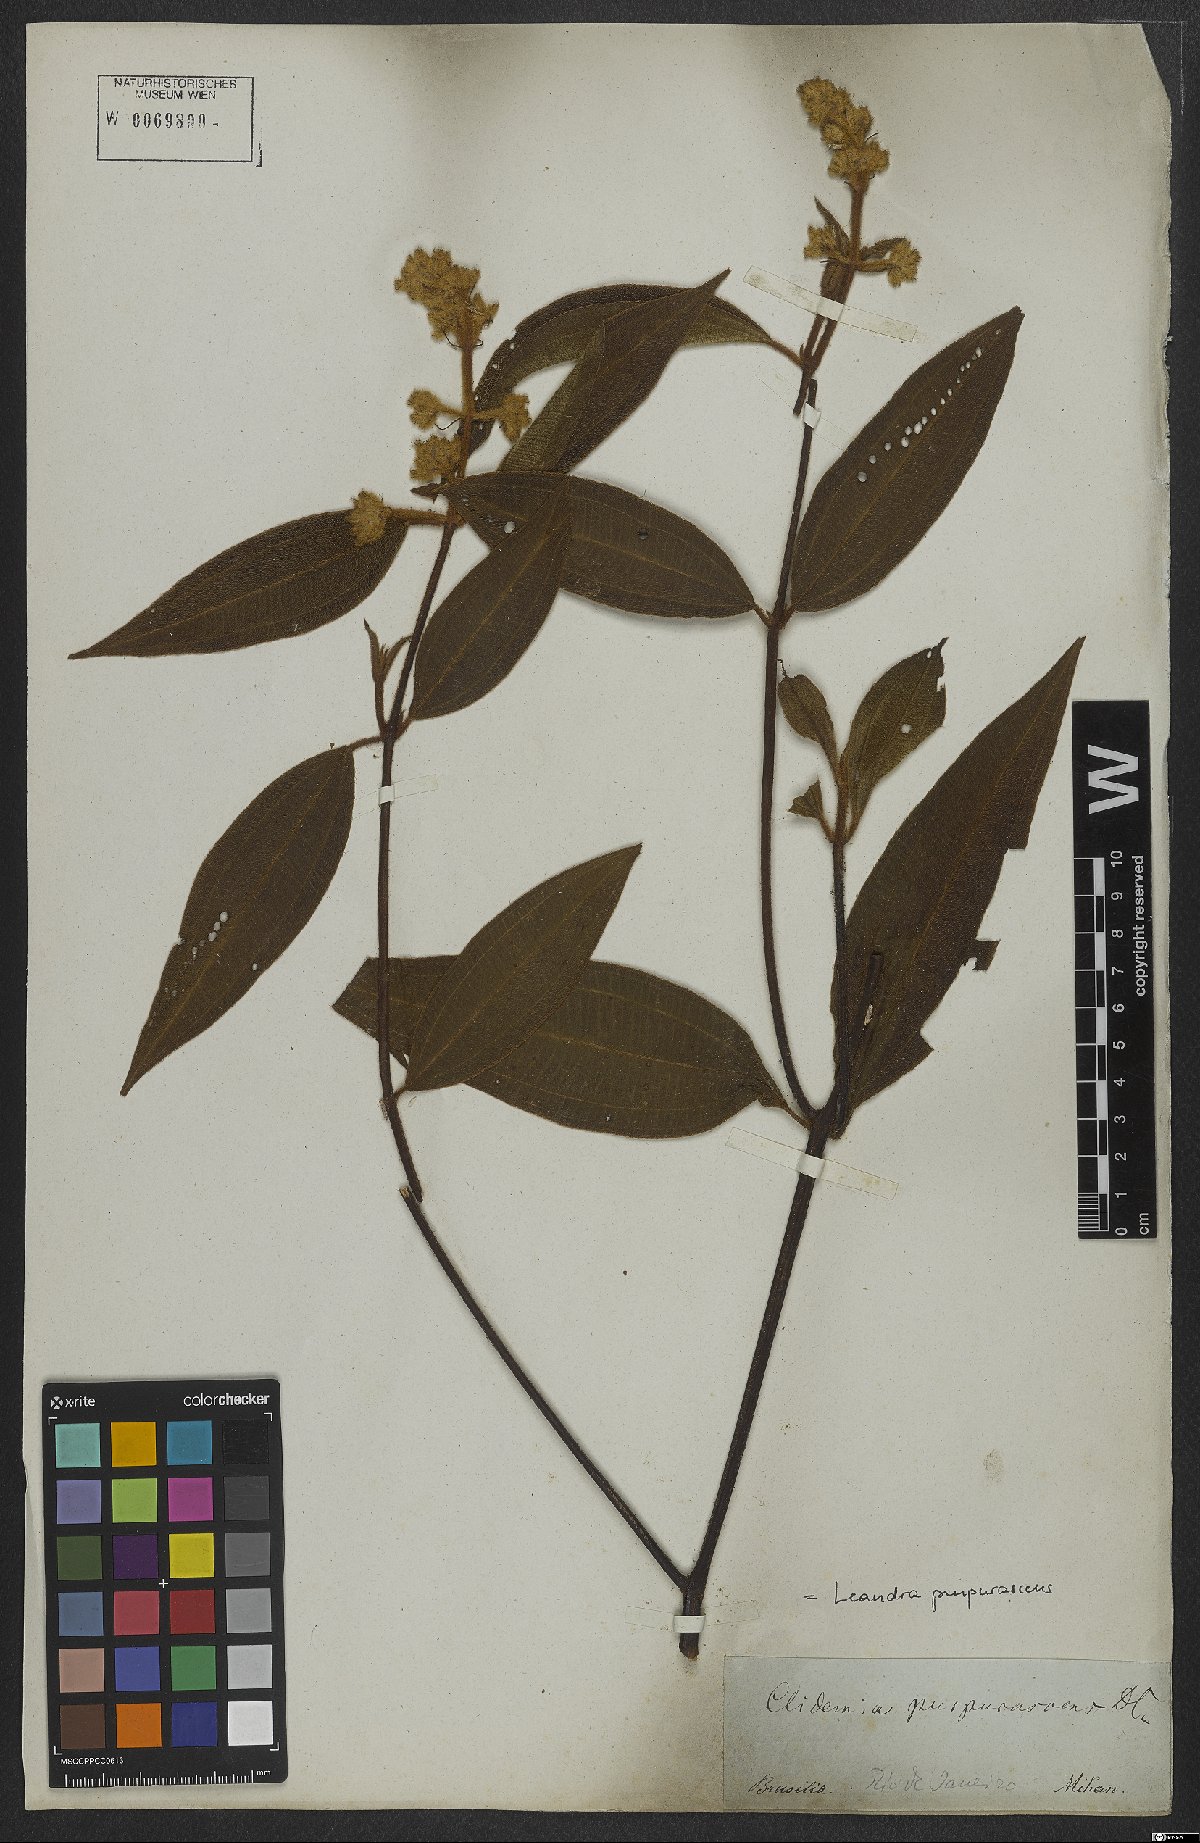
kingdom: Plantae
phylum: Tracheophyta
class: Magnoliopsida
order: Myrtales
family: Melastomataceae
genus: Miconia
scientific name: Miconia microstachya
